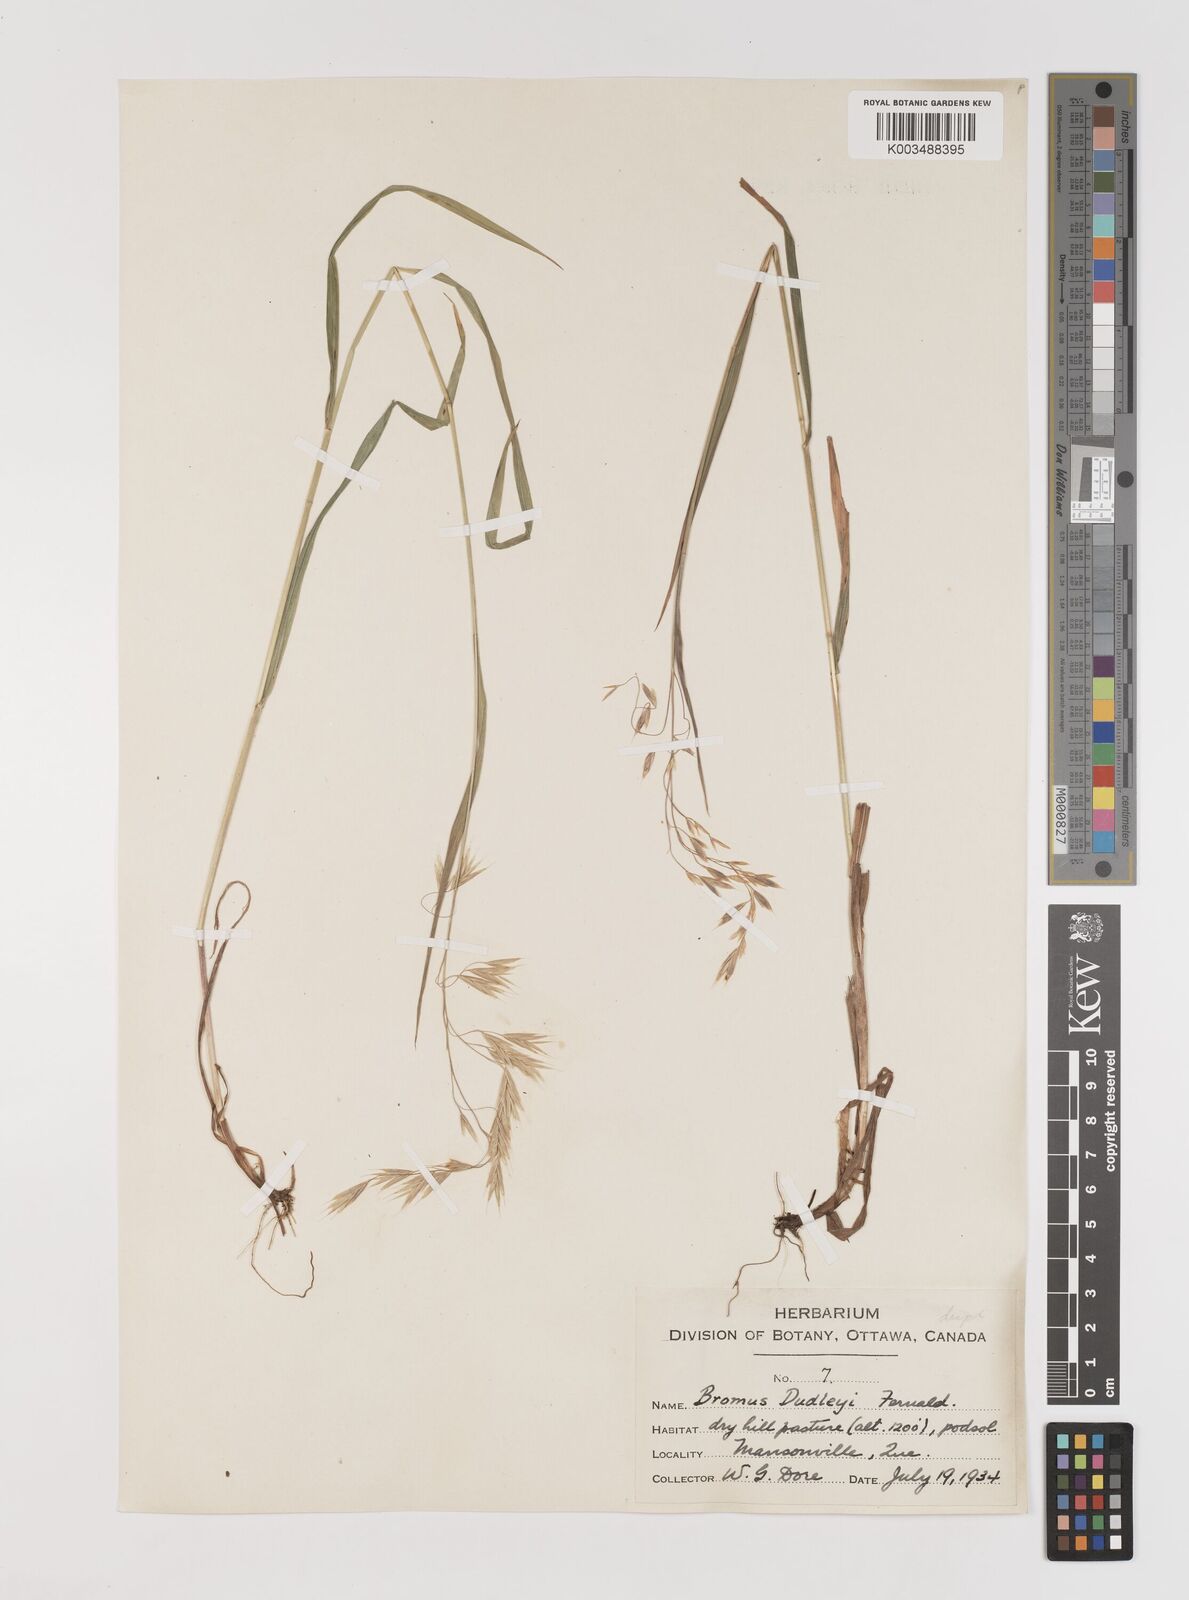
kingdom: Plantae
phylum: Tracheophyta
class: Liliopsida
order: Poales
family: Poaceae
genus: Bromus
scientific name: Bromus ciliatus
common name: Fringe brome
